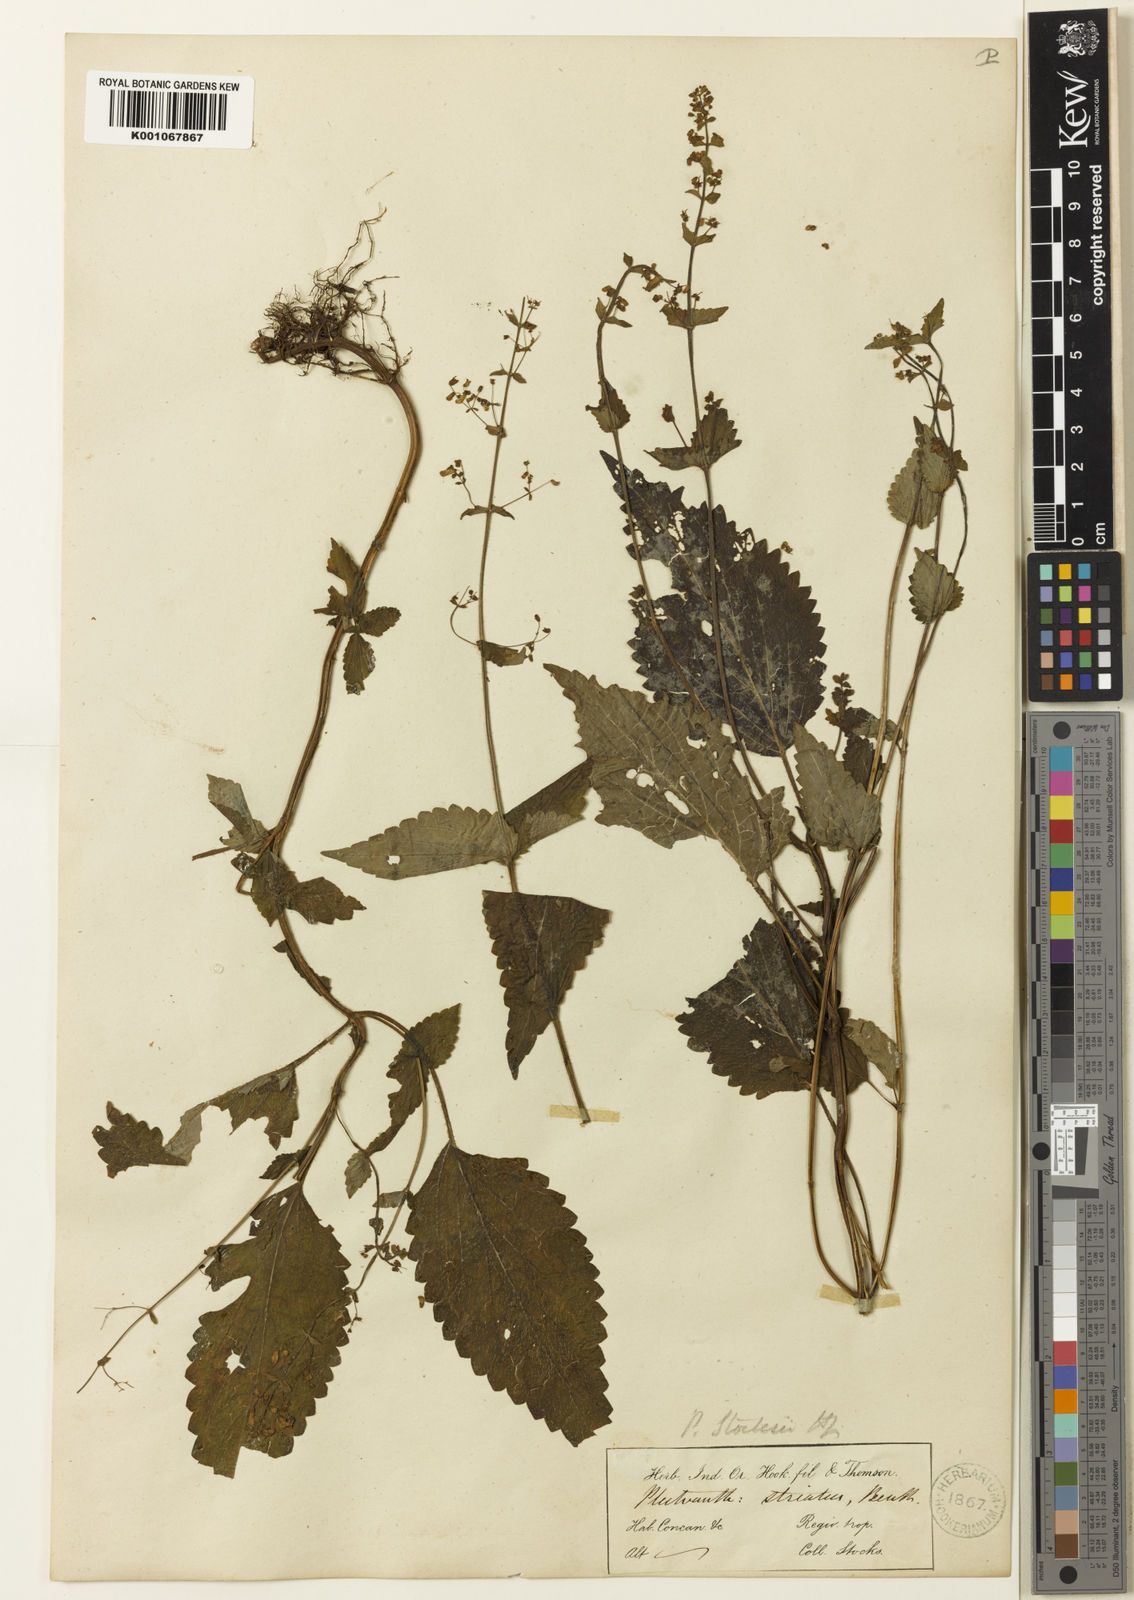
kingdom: Plantae
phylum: Tracheophyta
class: Magnoliopsida
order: Lamiales
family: Lamiaceae
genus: Isodon
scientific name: Isodon lophanthoides
